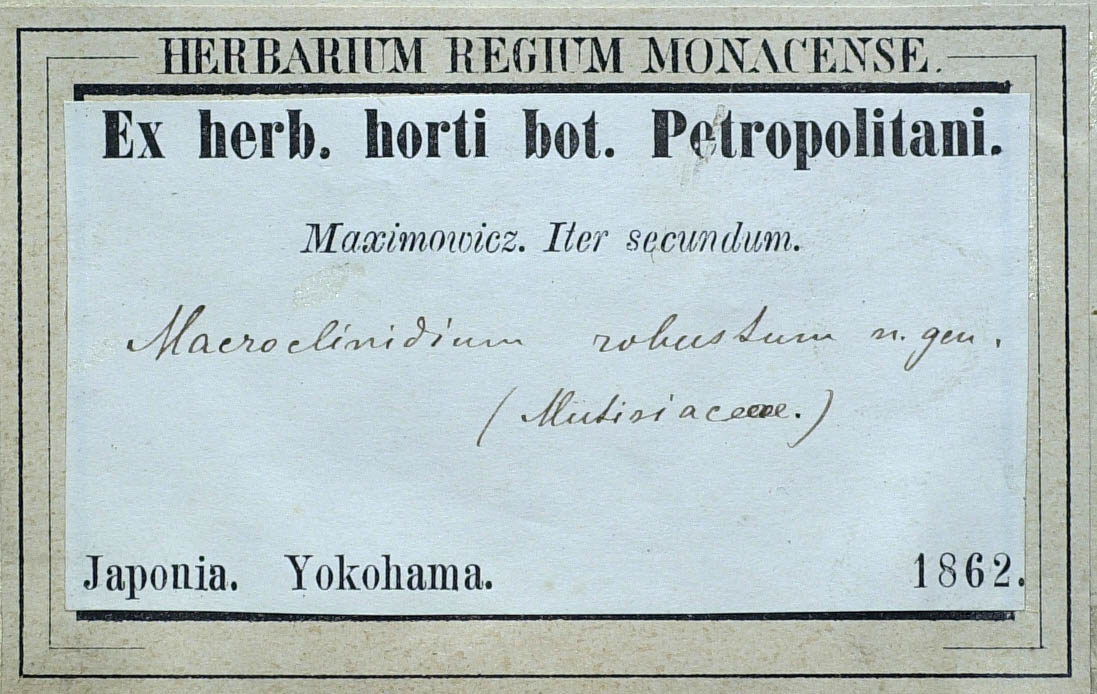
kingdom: Plantae
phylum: Tracheophyta
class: Magnoliopsida
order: Asterales
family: Asteraceae
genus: Pertya
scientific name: Pertya robusta
